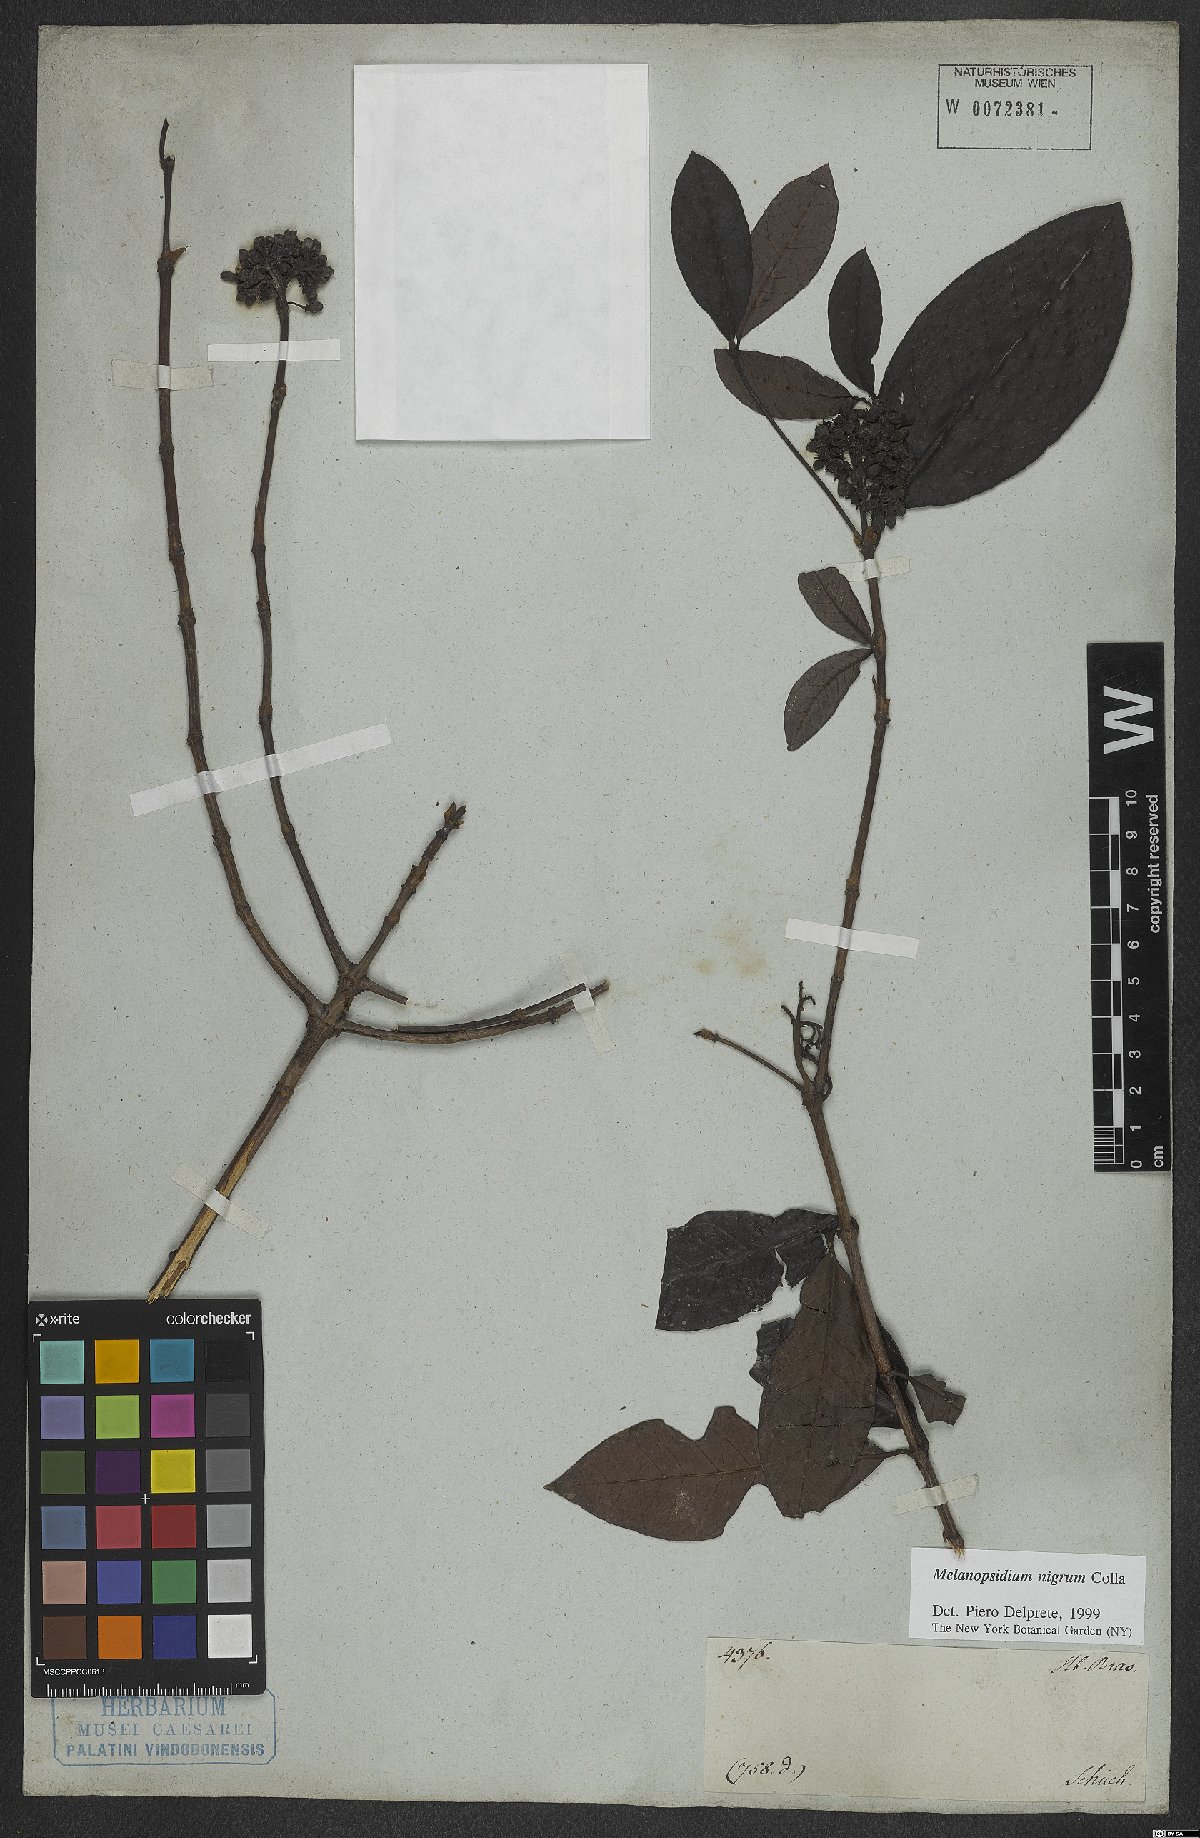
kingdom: Plantae
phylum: Tracheophyta
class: Magnoliopsida
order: Gentianales
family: Rubiaceae
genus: Melanopsidium
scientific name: Melanopsidium nigrum
